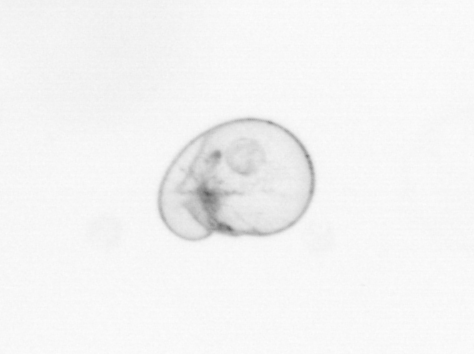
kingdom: Chromista
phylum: Myzozoa
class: Dinophyceae
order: Noctilucales
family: Noctilucaceae
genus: Noctiluca
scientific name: Noctiluca scintillans
